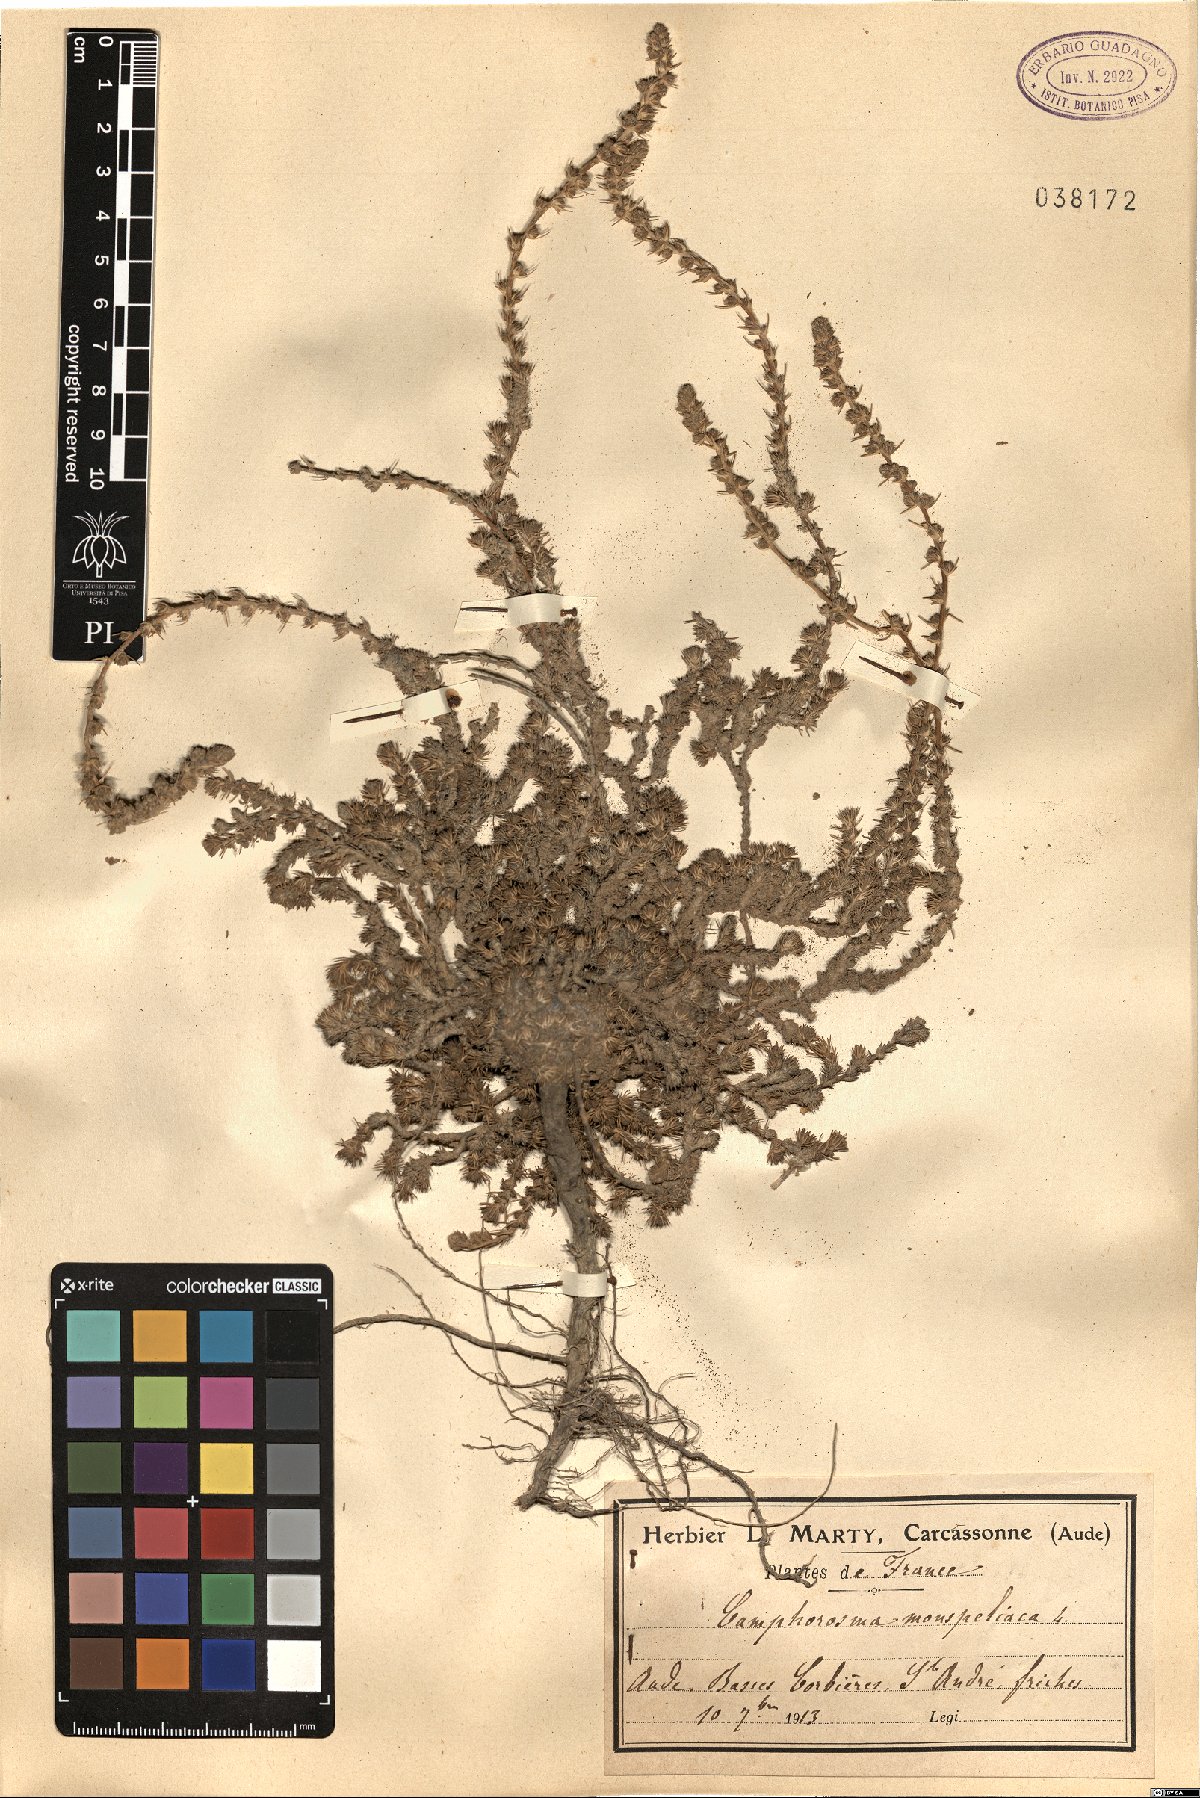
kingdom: Plantae
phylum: Tracheophyta
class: Magnoliopsida
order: Caryophyllales
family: Amaranthaceae
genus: Camphorosma
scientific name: Camphorosma monspeliaca
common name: Camphorfume
